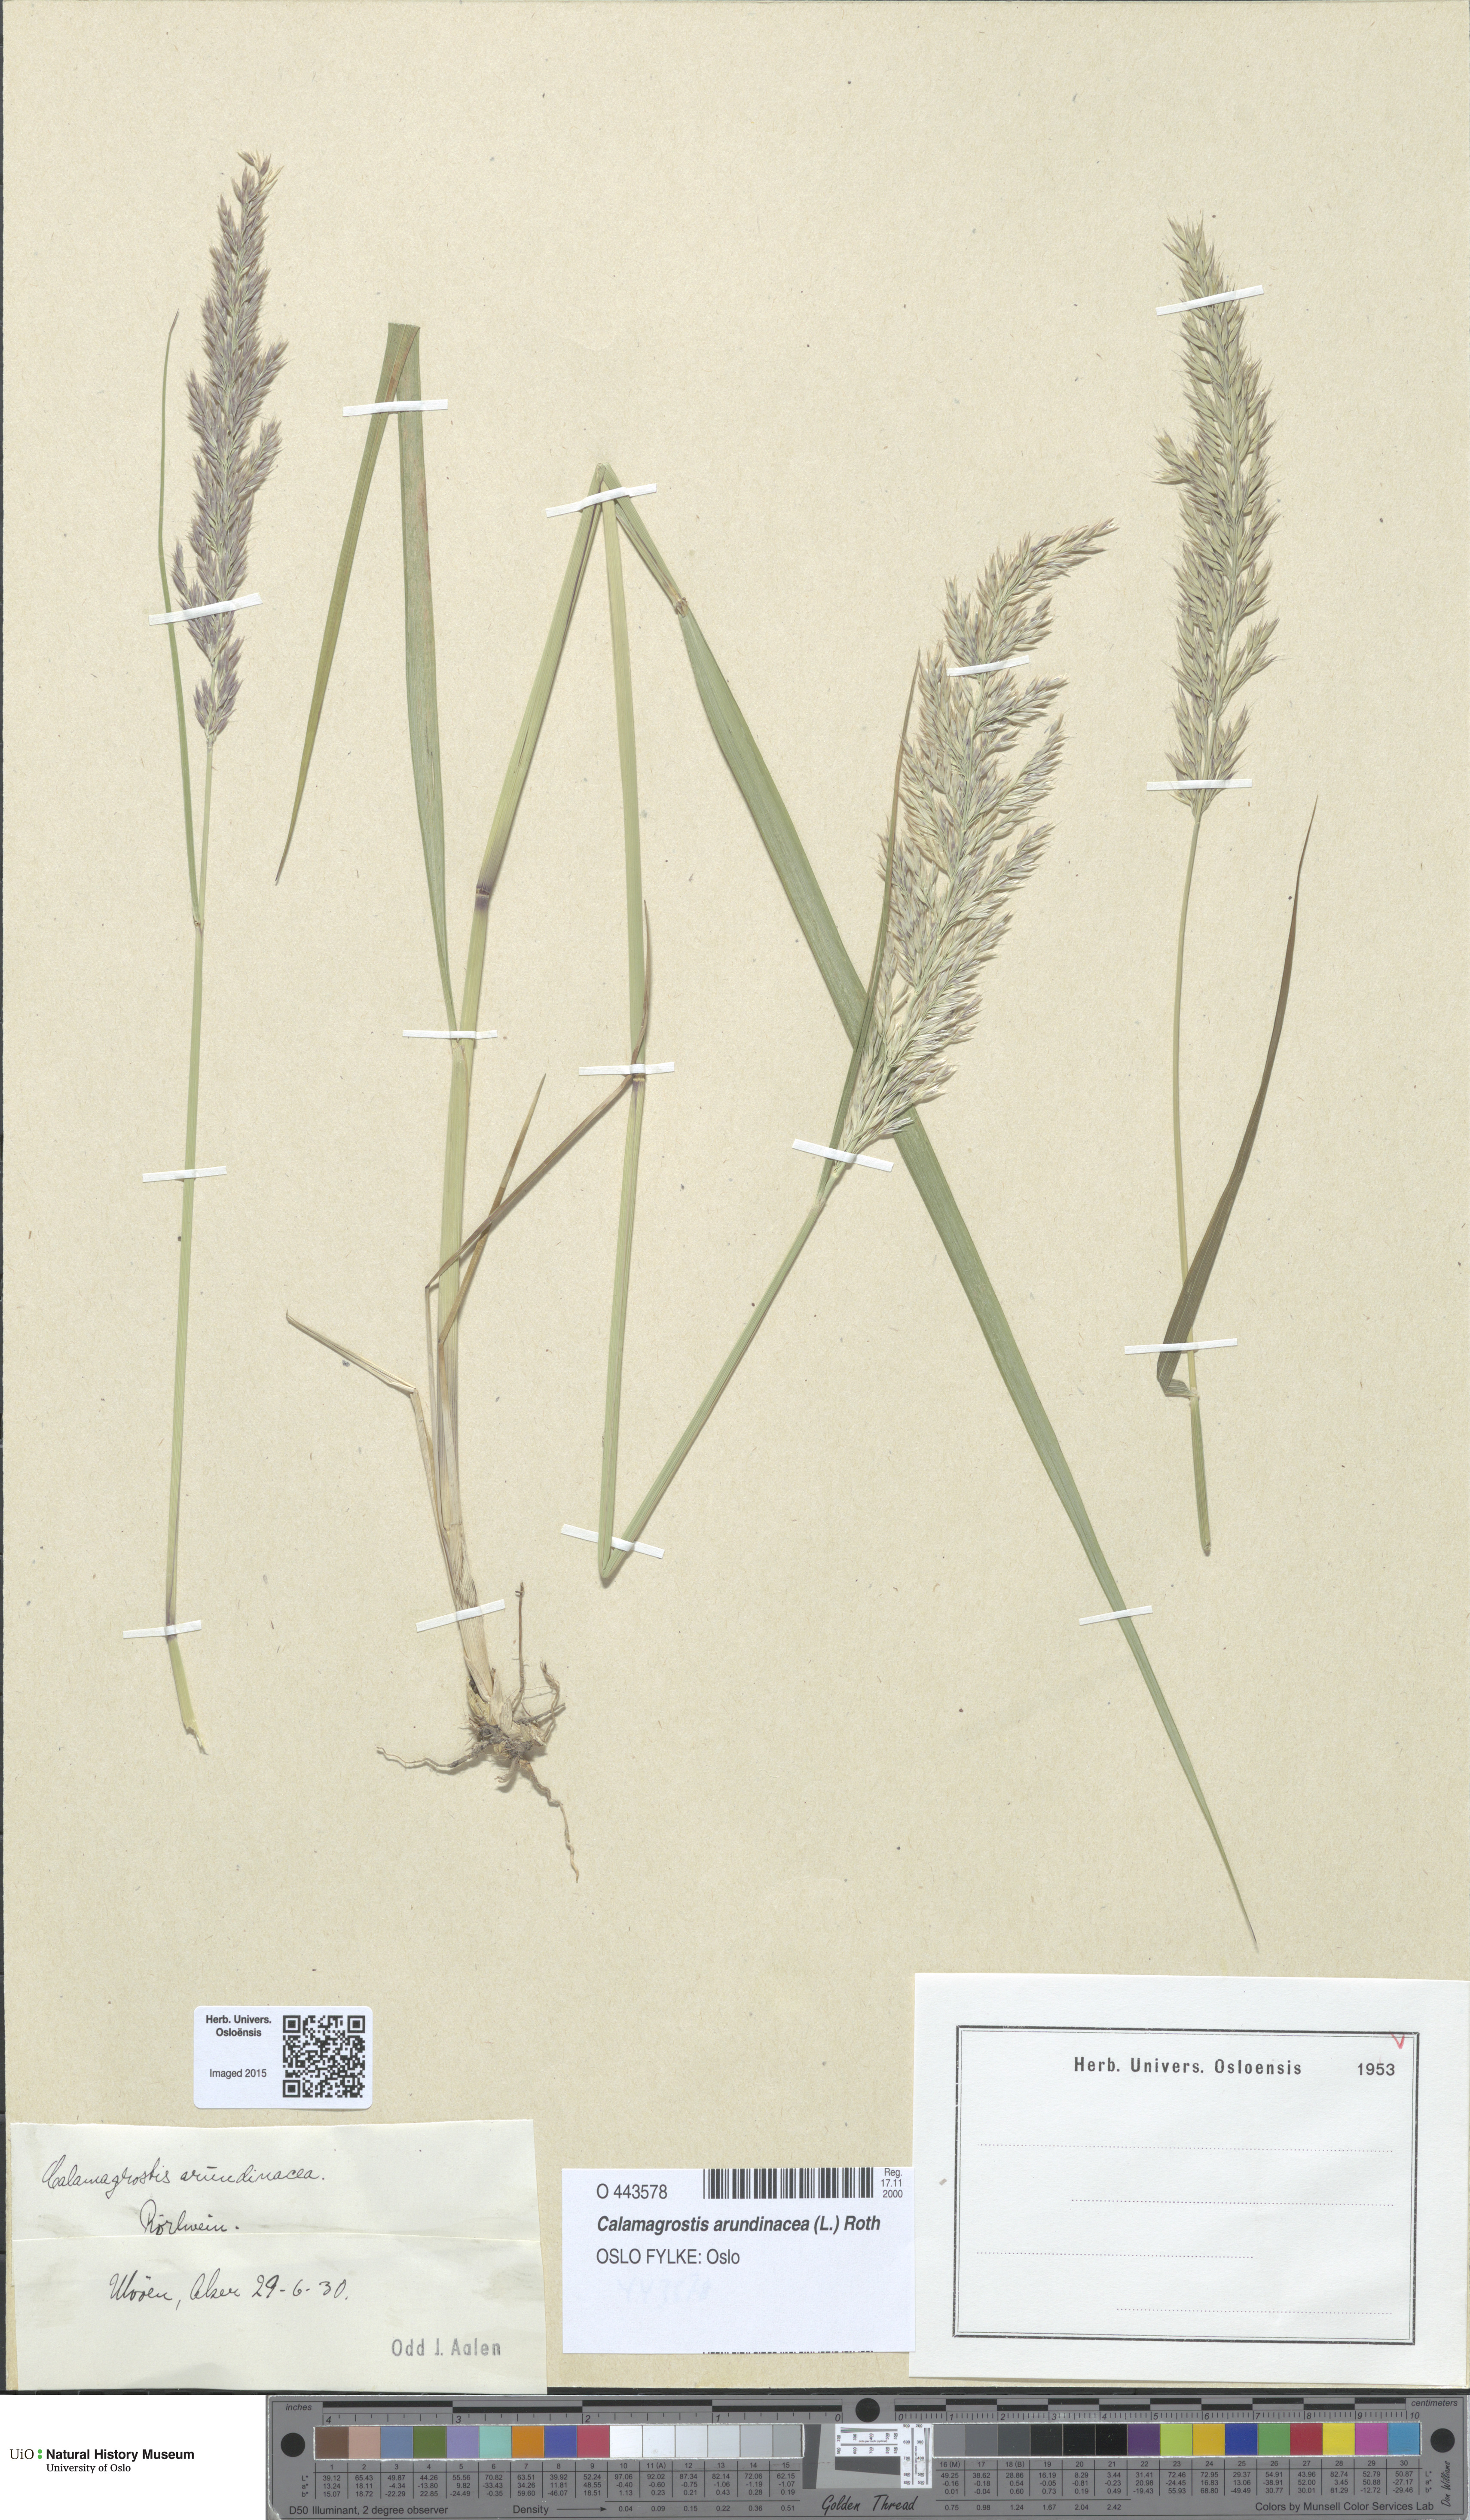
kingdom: Plantae
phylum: Tracheophyta
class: Liliopsida
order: Poales
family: Poaceae
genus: Calamagrostis
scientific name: Calamagrostis arundinacea
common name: Metskastik
